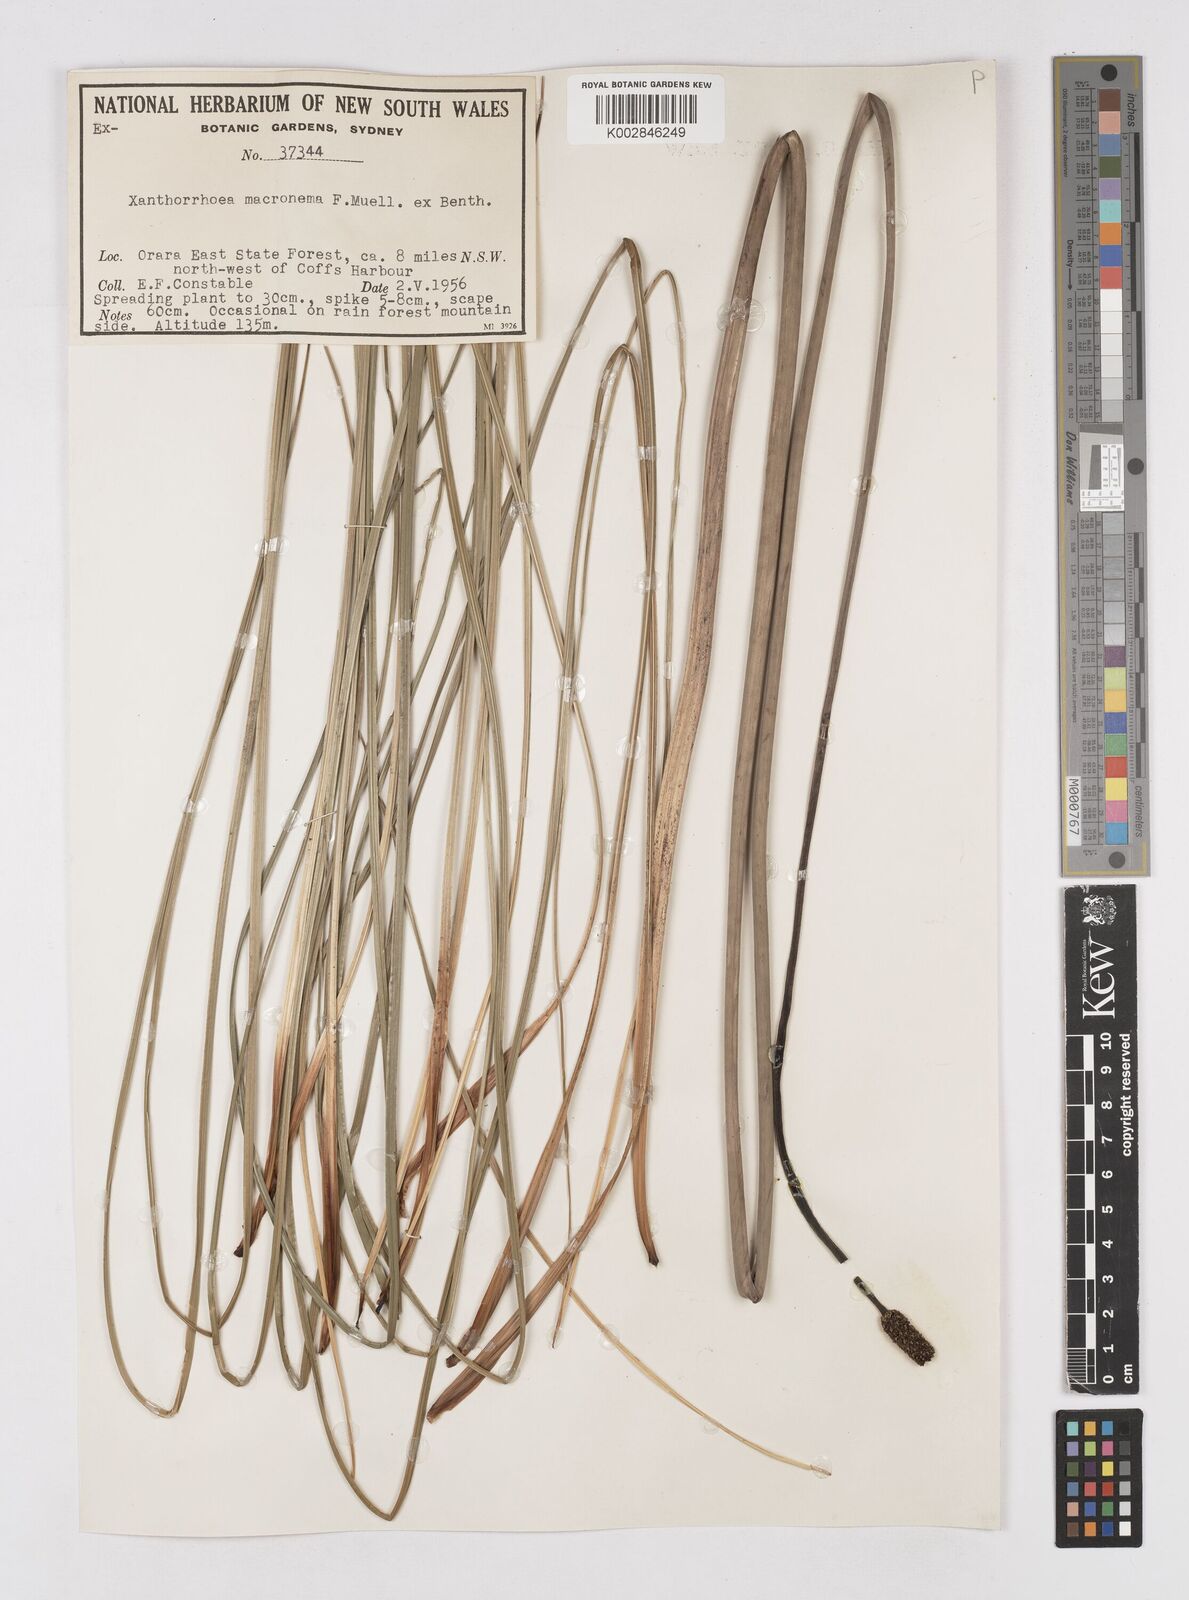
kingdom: Plantae
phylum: Tracheophyta
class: Liliopsida
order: Asparagales
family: Asphodelaceae
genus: Xanthorrhoea
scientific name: Xanthorrhoea macronema
